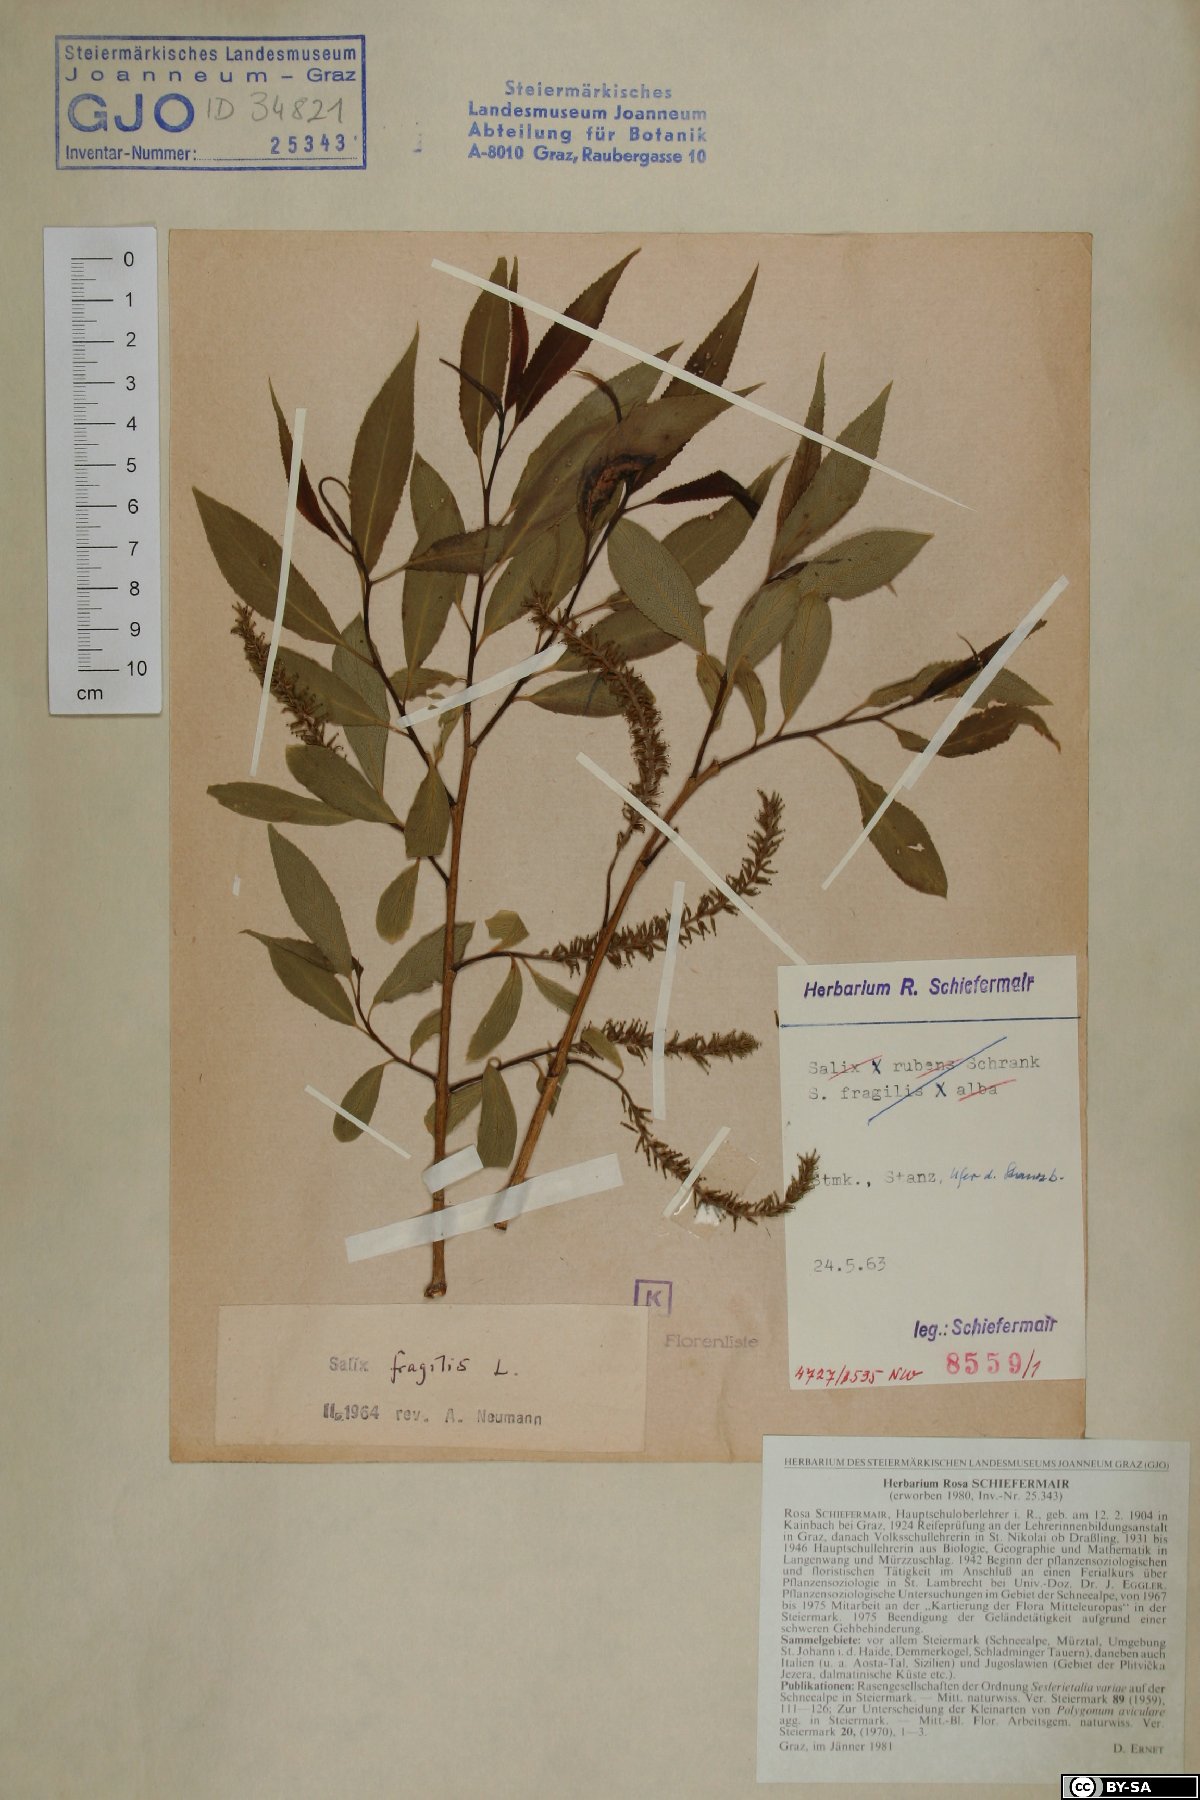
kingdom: Plantae
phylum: Tracheophyta
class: Magnoliopsida
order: Malpighiales
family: Salicaceae
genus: Salix
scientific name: Salix fragilis
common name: Crack willow
